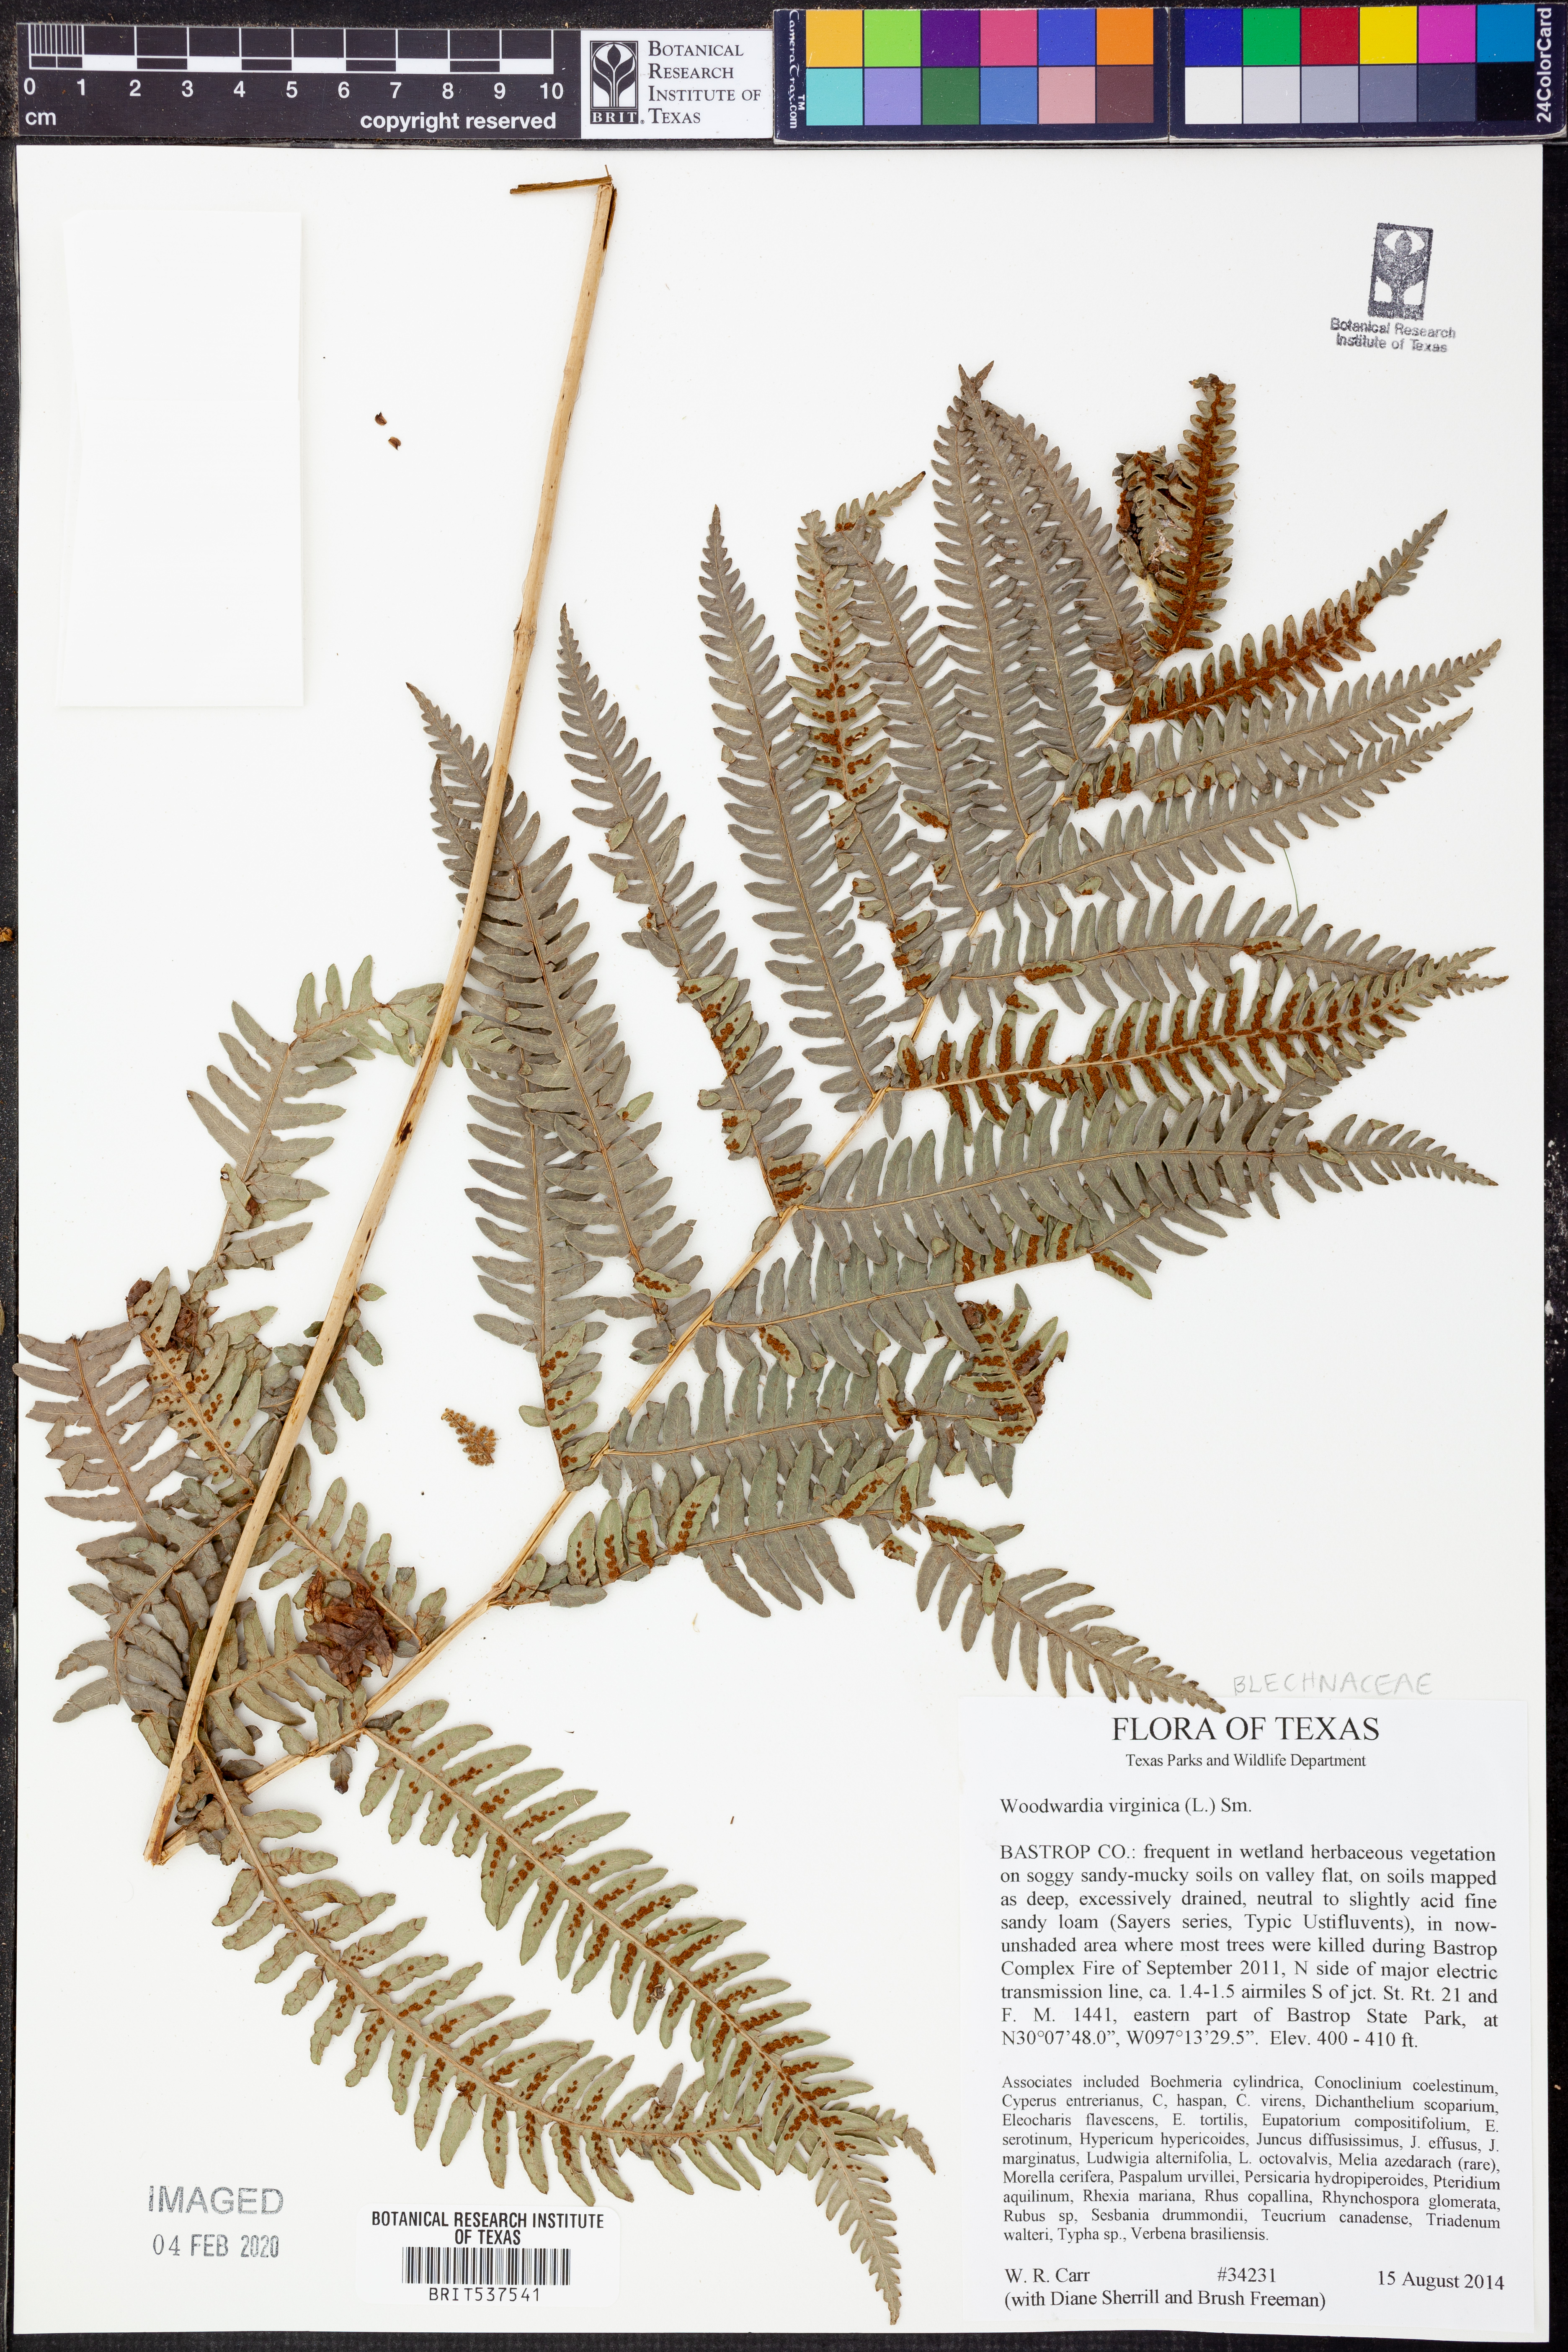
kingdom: Plantae
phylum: Tracheophyta
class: Polypodiopsida
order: Polypodiales
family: Blechnaceae
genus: Anchistea
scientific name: Anchistea virginica
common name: Virginia chain fern
